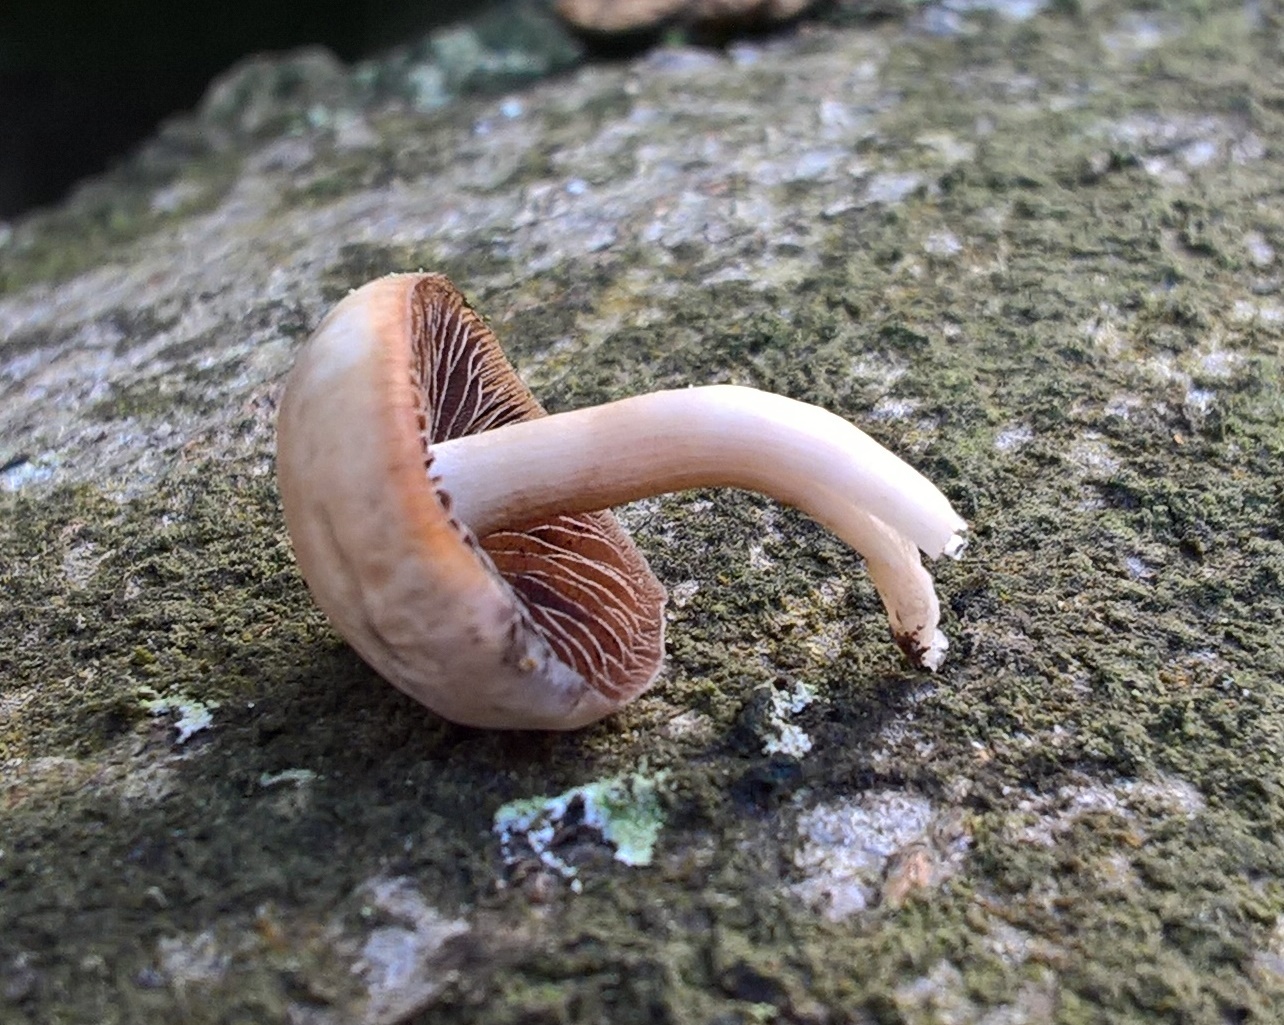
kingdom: Fungi
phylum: Basidiomycota
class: Agaricomycetes
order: Agaricales
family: Psathyrellaceae
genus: Homophron
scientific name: Homophron cernuum
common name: hvidlig mørkhat
